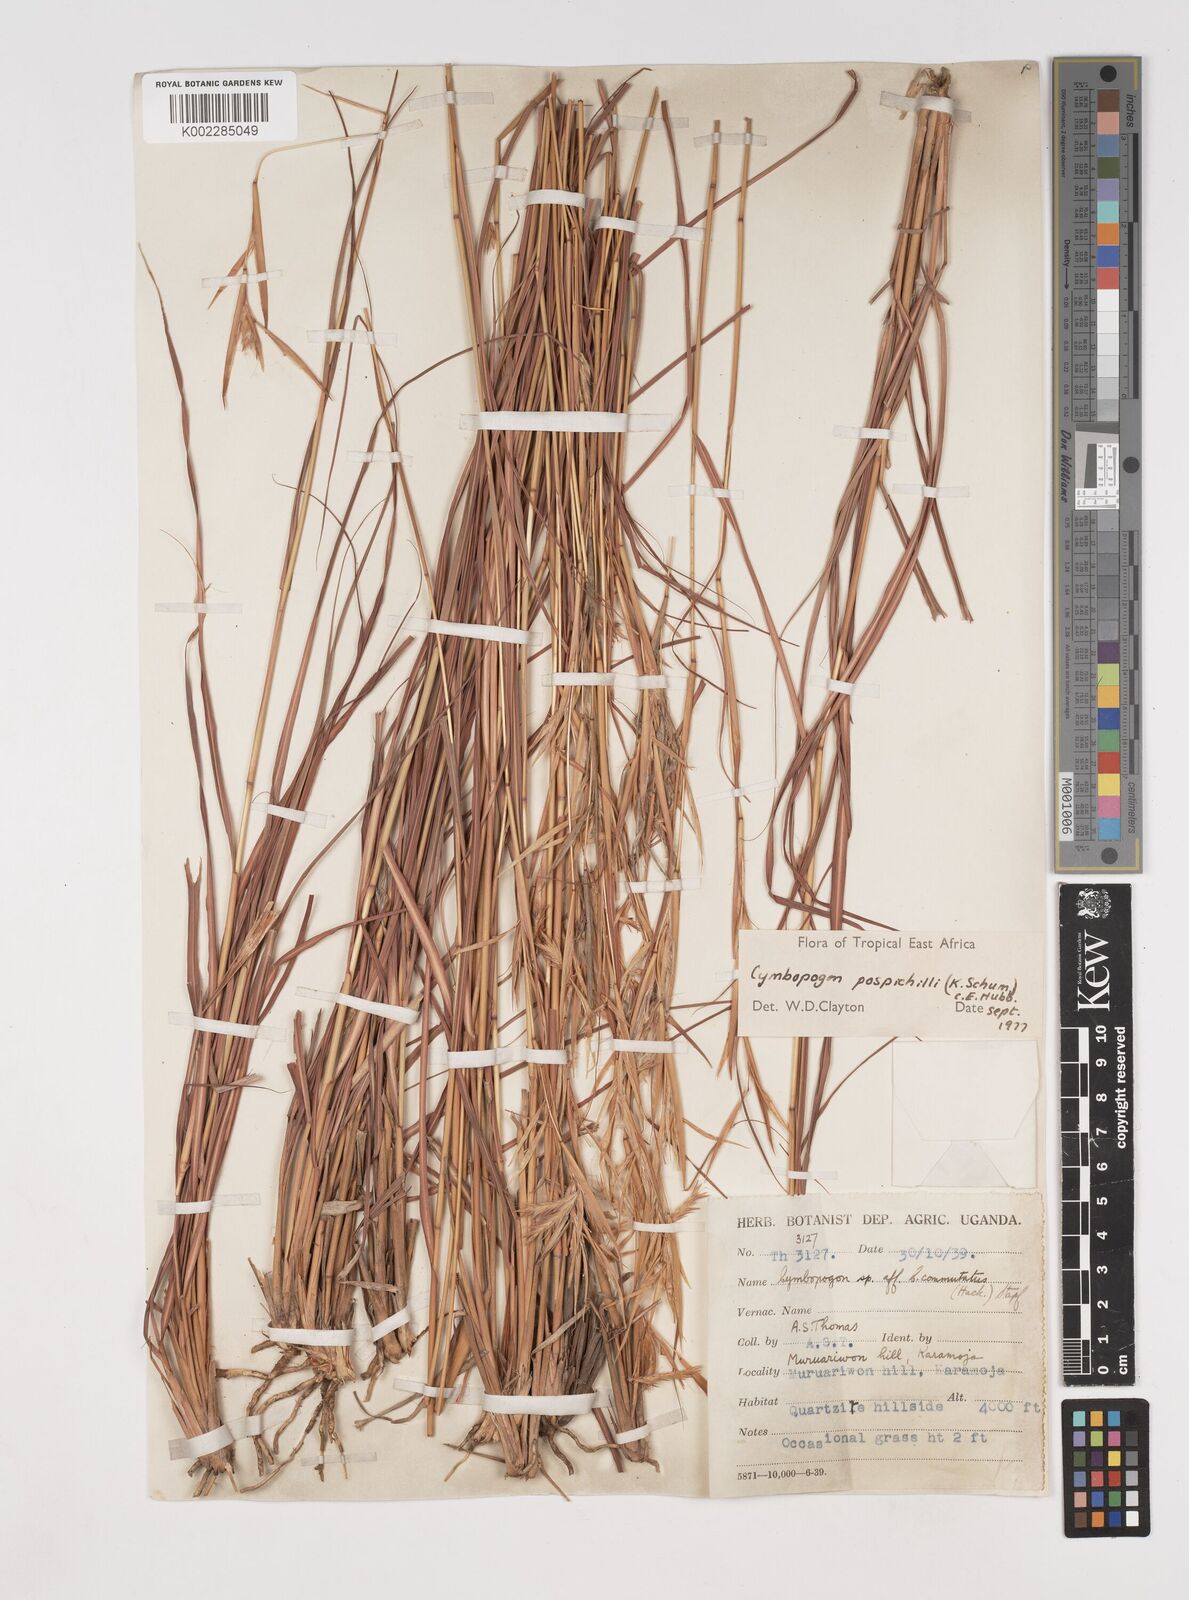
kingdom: Plantae
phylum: Tracheophyta
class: Liliopsida
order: Poales
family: Poaceae
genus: Cymbopogon
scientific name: Cymbopogon pospischilii
